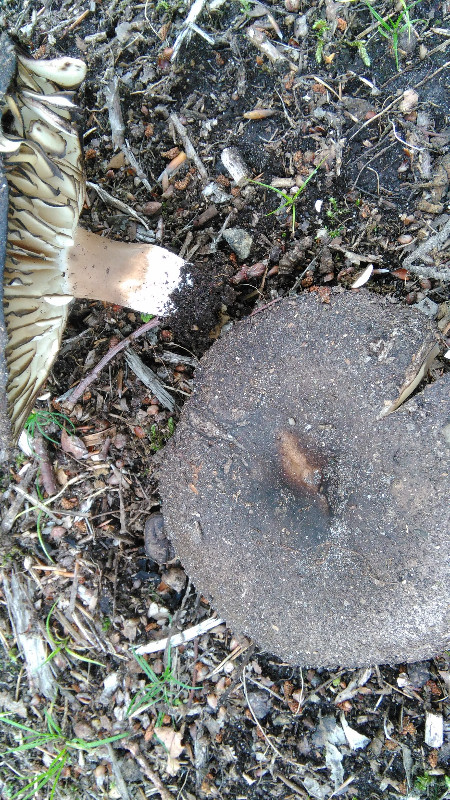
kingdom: Fungi
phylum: Basidiomycota
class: Agaricomycetes
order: Russulales
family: Russulaceae
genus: Russula
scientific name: Russula
